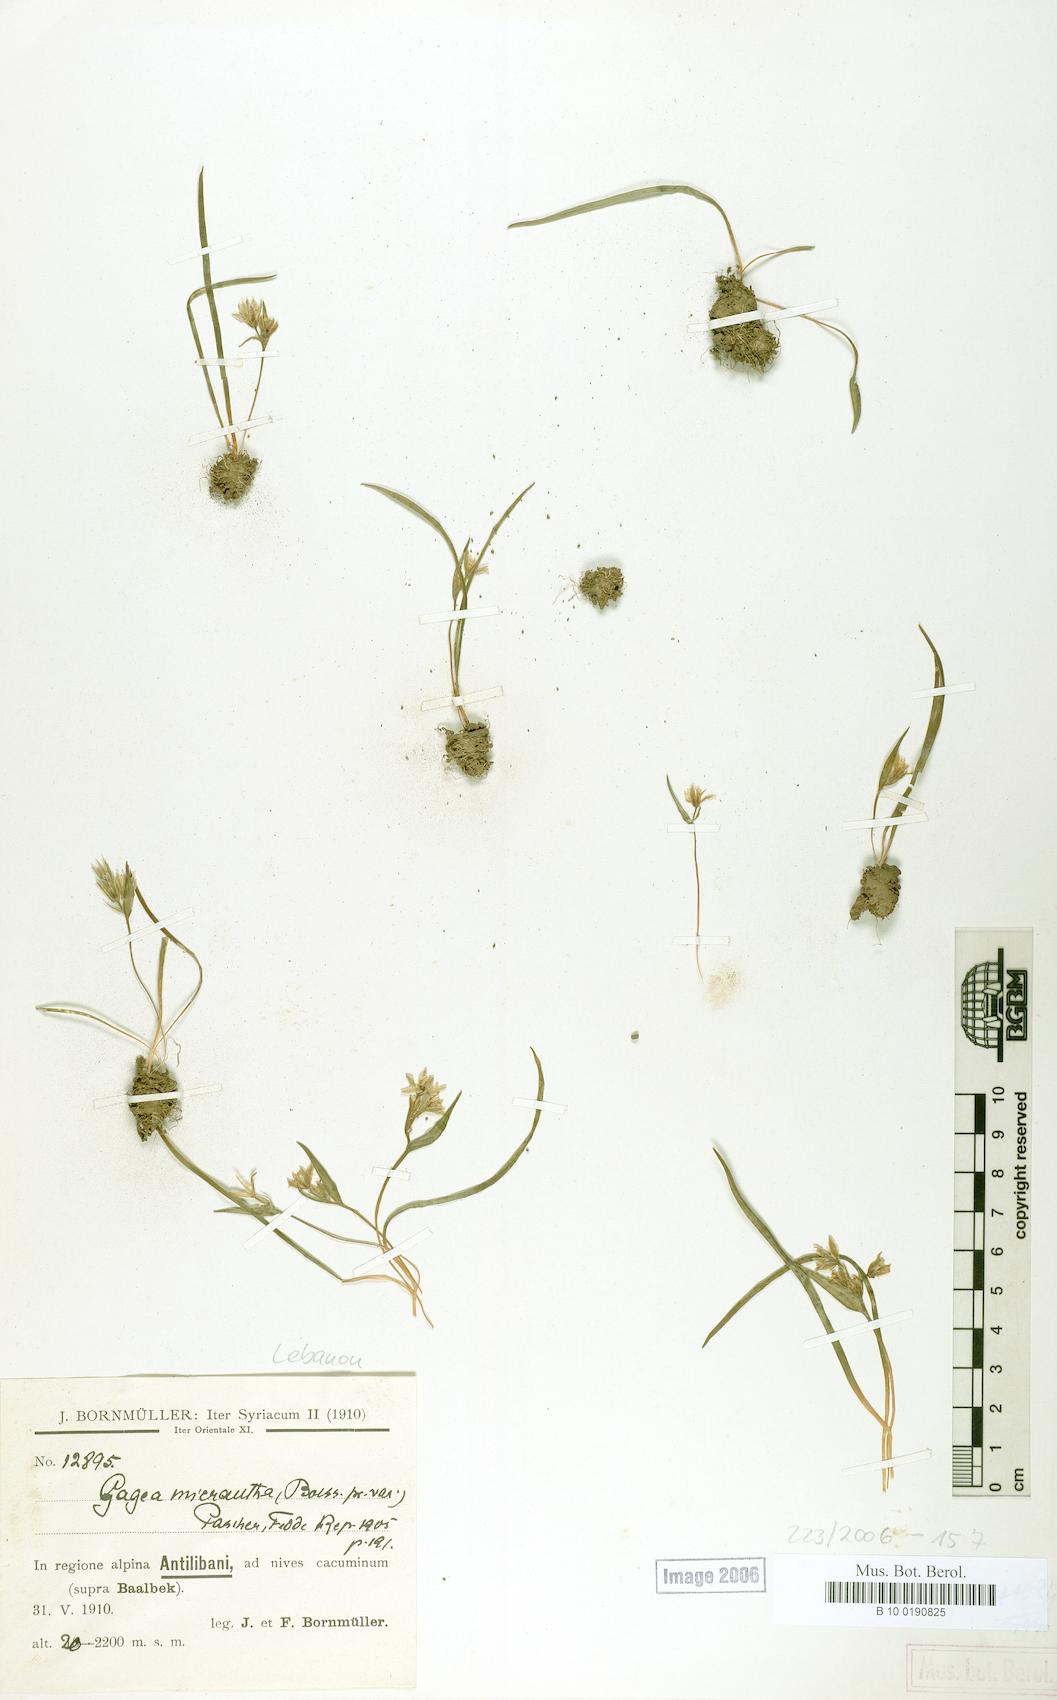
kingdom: Plantae
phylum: Tracheophyta
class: Liliopsida
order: Liliales
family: Liliaceae
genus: Gagea
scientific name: Gagea micrantha
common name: Small-flowered gagea
